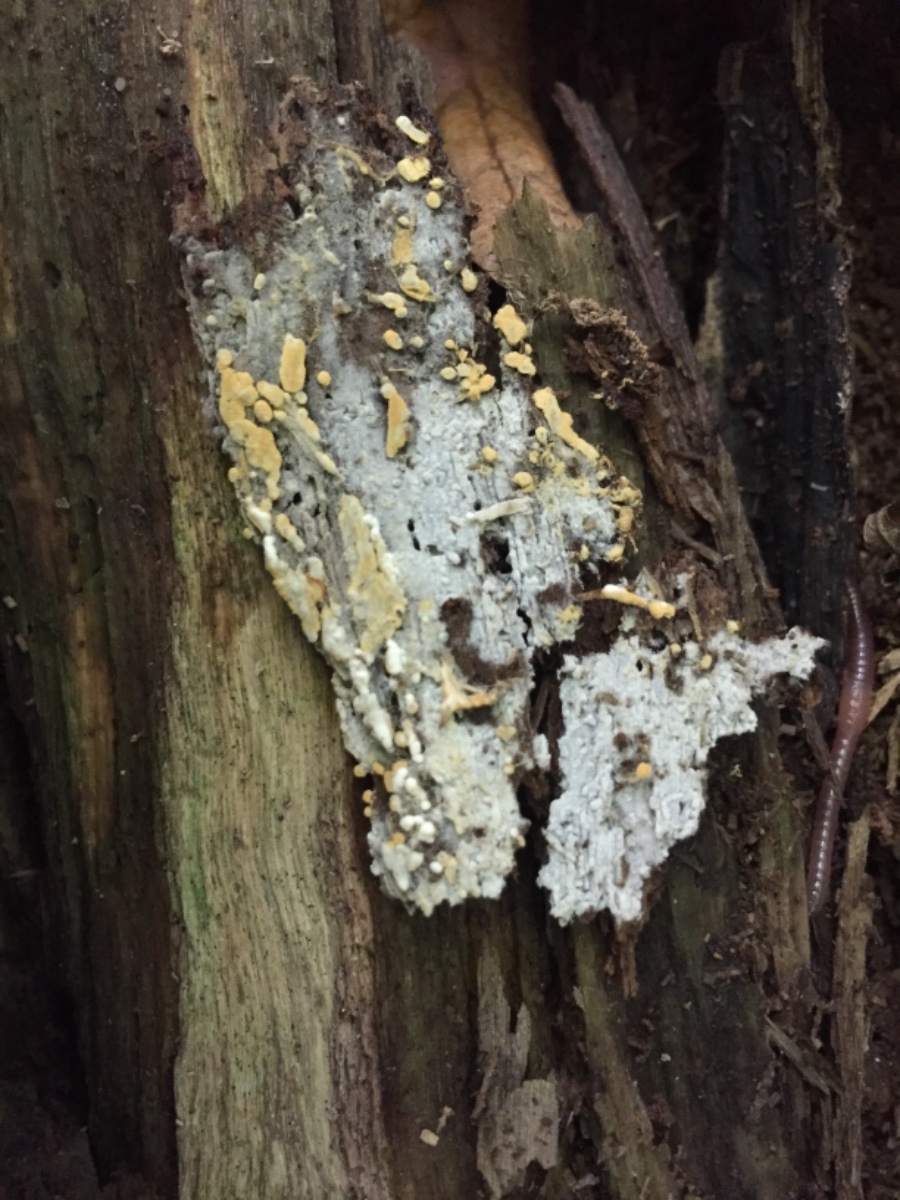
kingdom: Fungi
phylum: Basidiomycota
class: Agaricomycetes
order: Cantharellales
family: Botryobasidiaceae
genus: Botryobasidium
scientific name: Botryobasidium aureum
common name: gylden spindhinde
